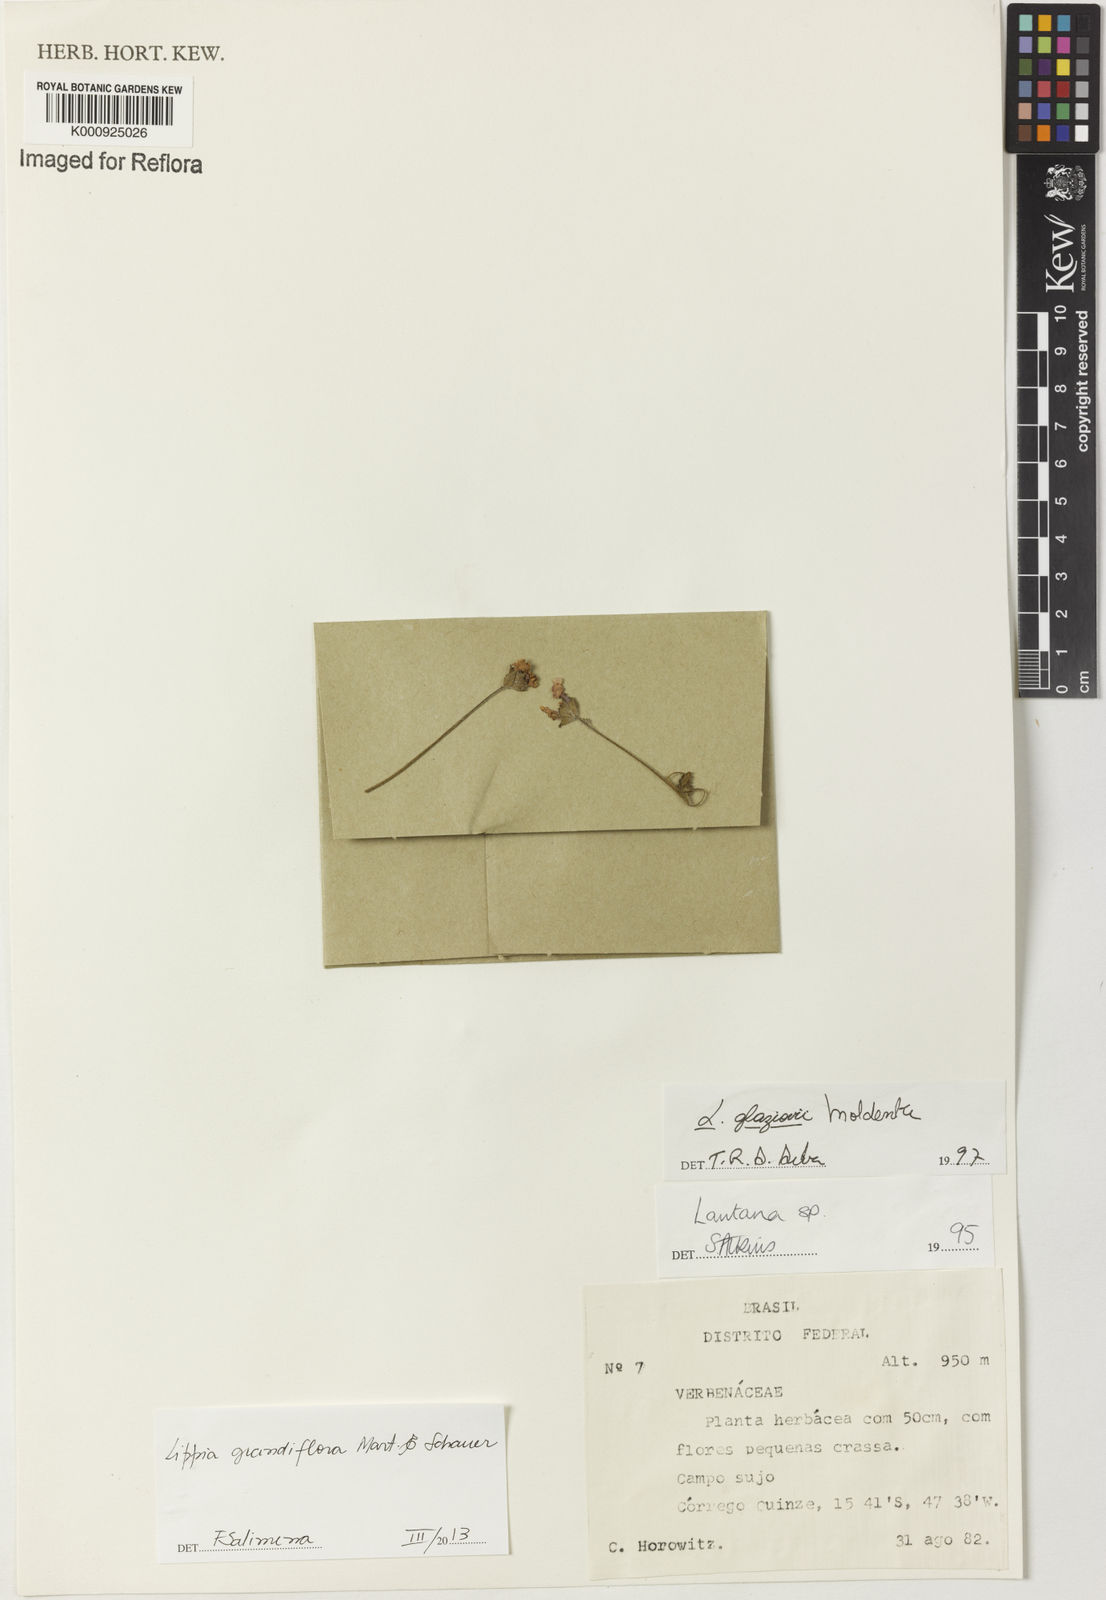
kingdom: Plantae
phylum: Tracheophyta
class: Magnoliopsida
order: Lamiales
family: Verbenaceae
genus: Lippia
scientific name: Lippia grandiflora
